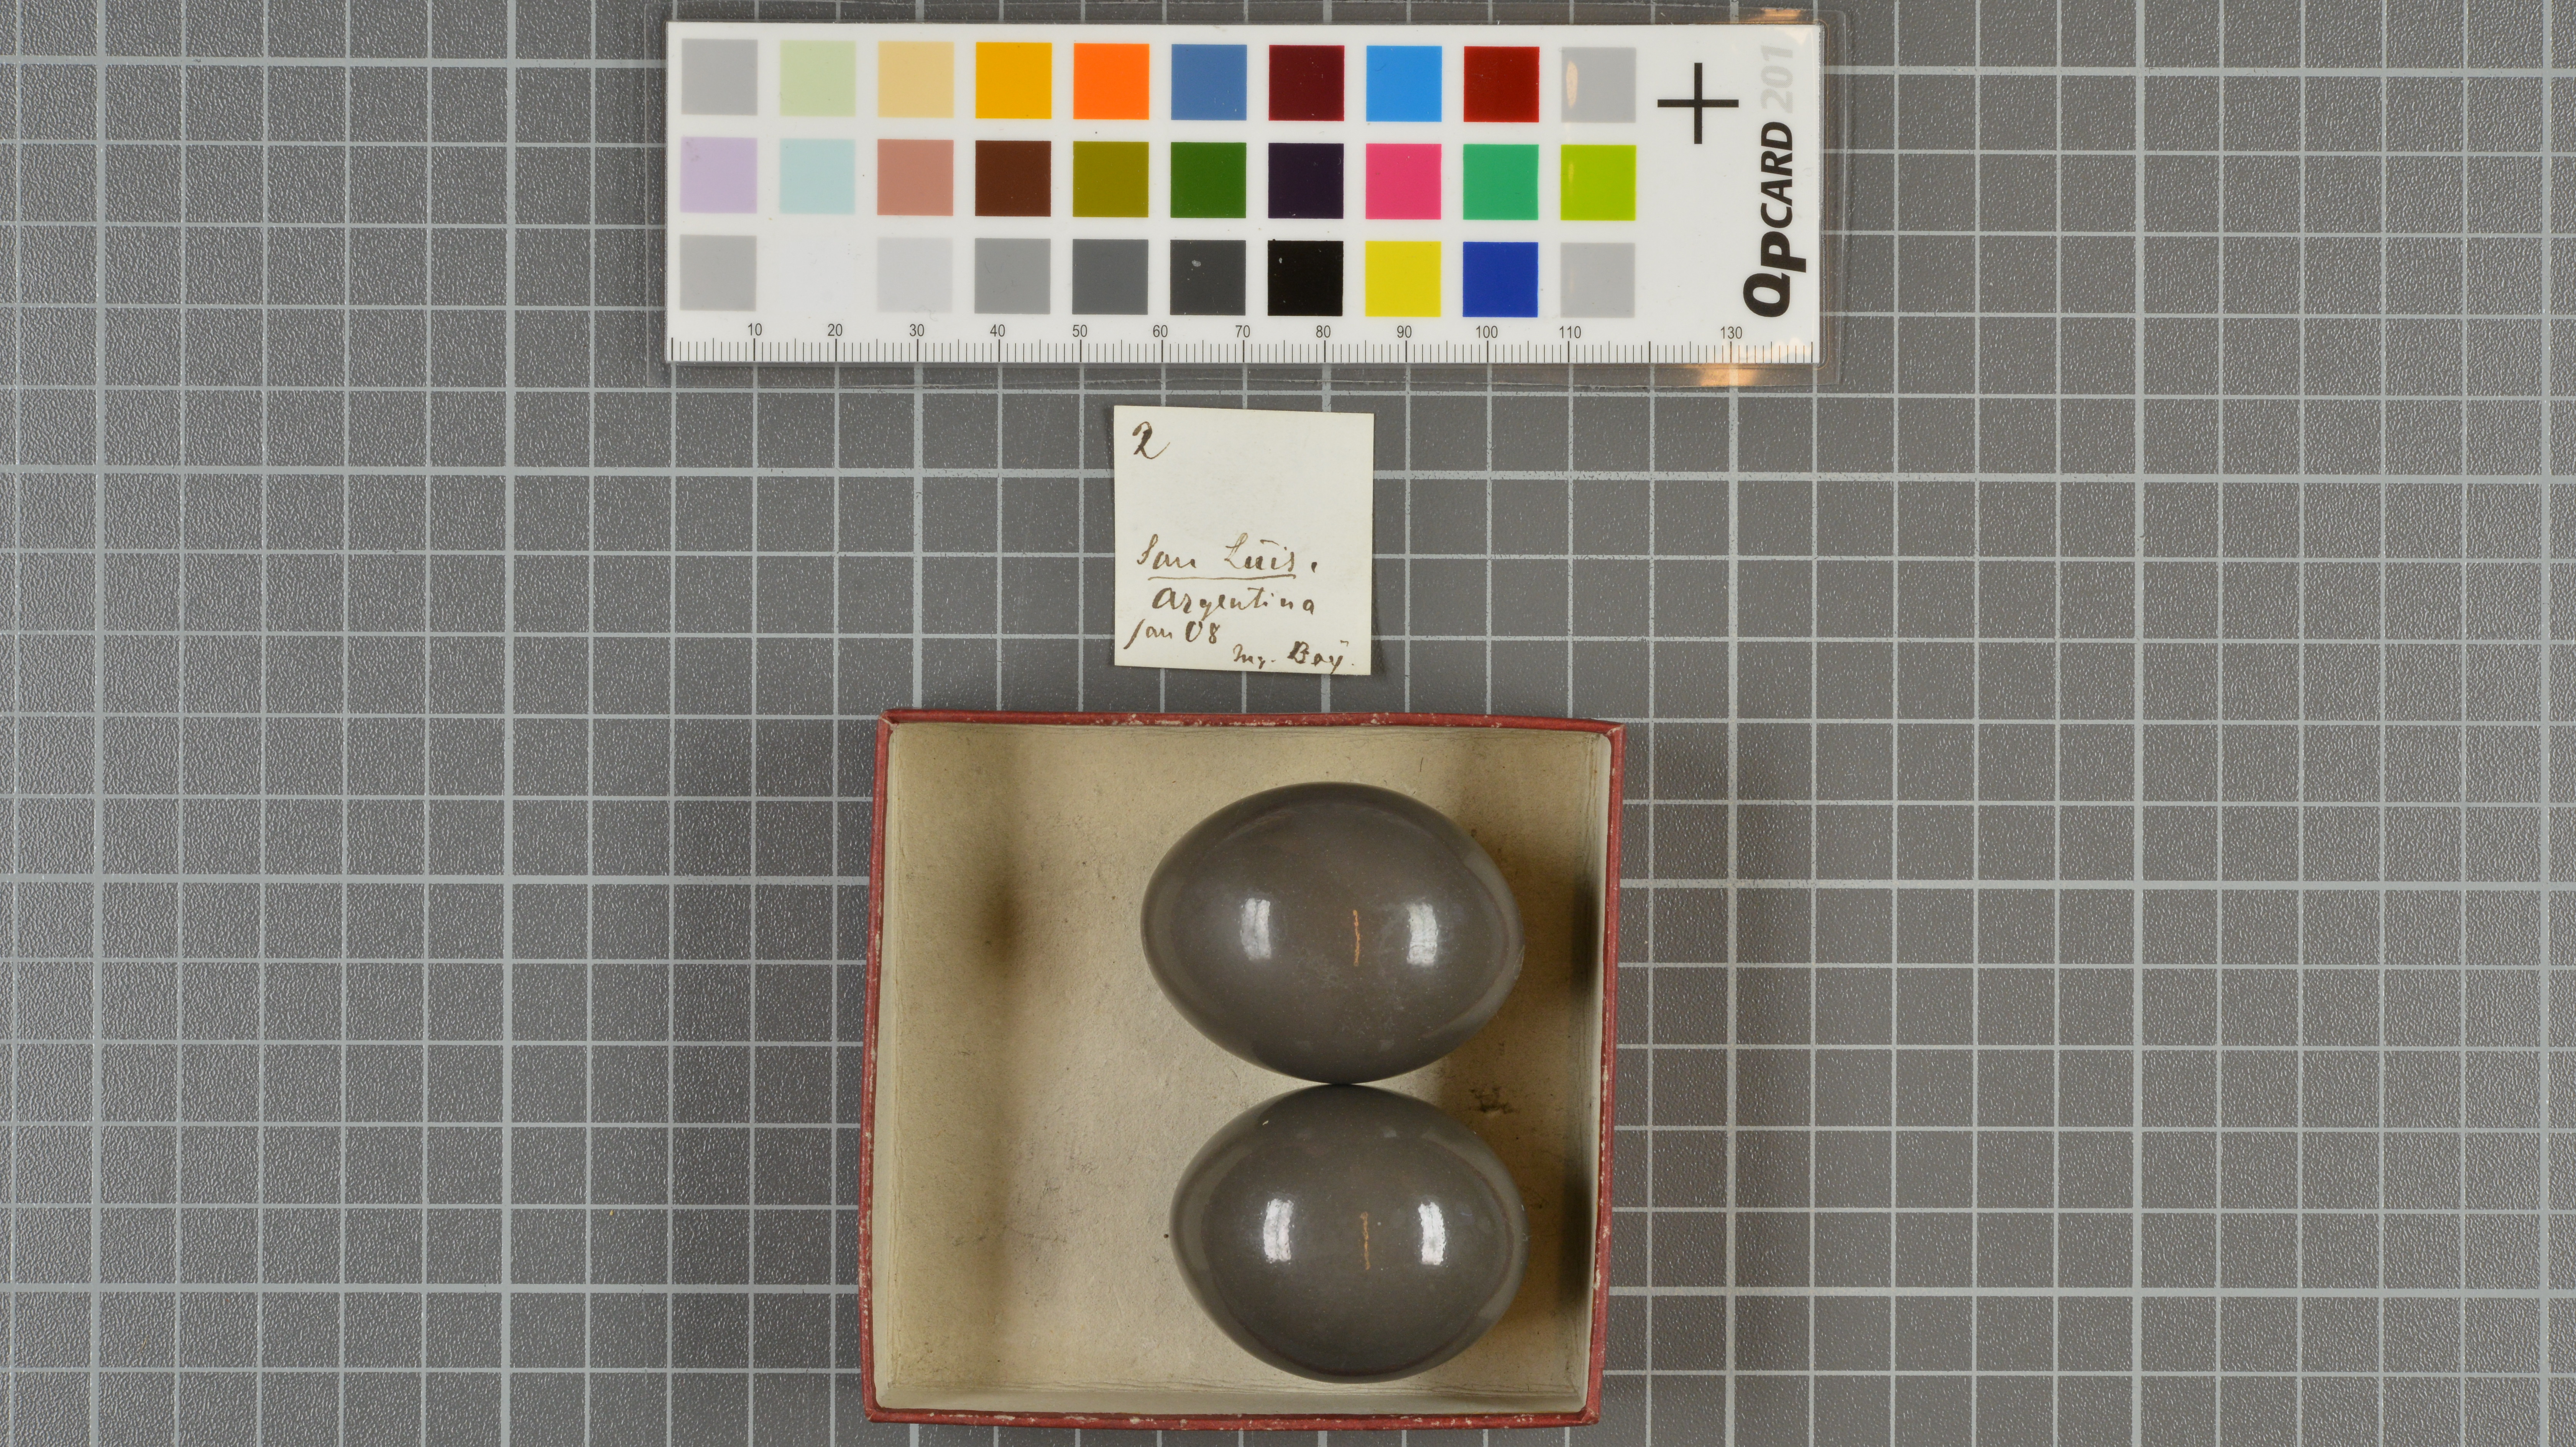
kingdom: Animalia
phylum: Chordata
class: Aves
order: Tinamiformes
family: Tinamidae
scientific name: Tinamidae
